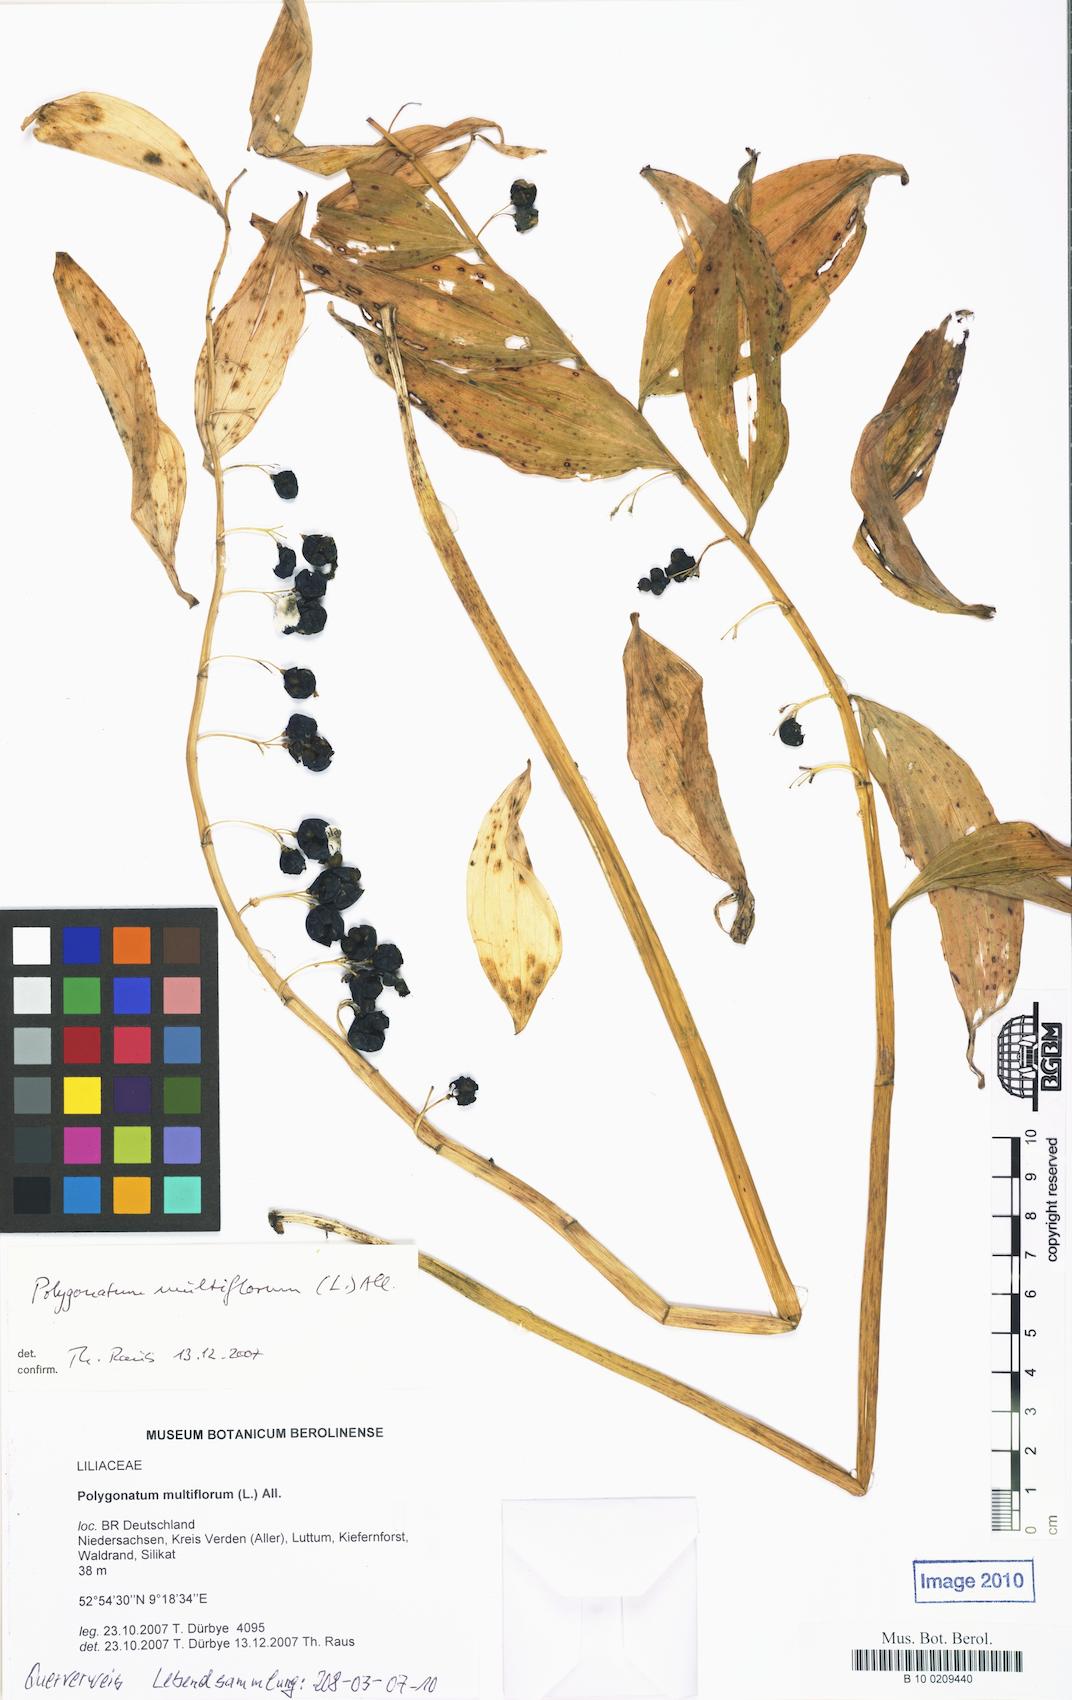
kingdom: Plantae
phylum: Tracheophyta
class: Liliopsida
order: Asparagales
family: Asparagaceae
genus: Polygonatum
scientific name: Polygonatum multiflorum
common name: Solomon's-seal
